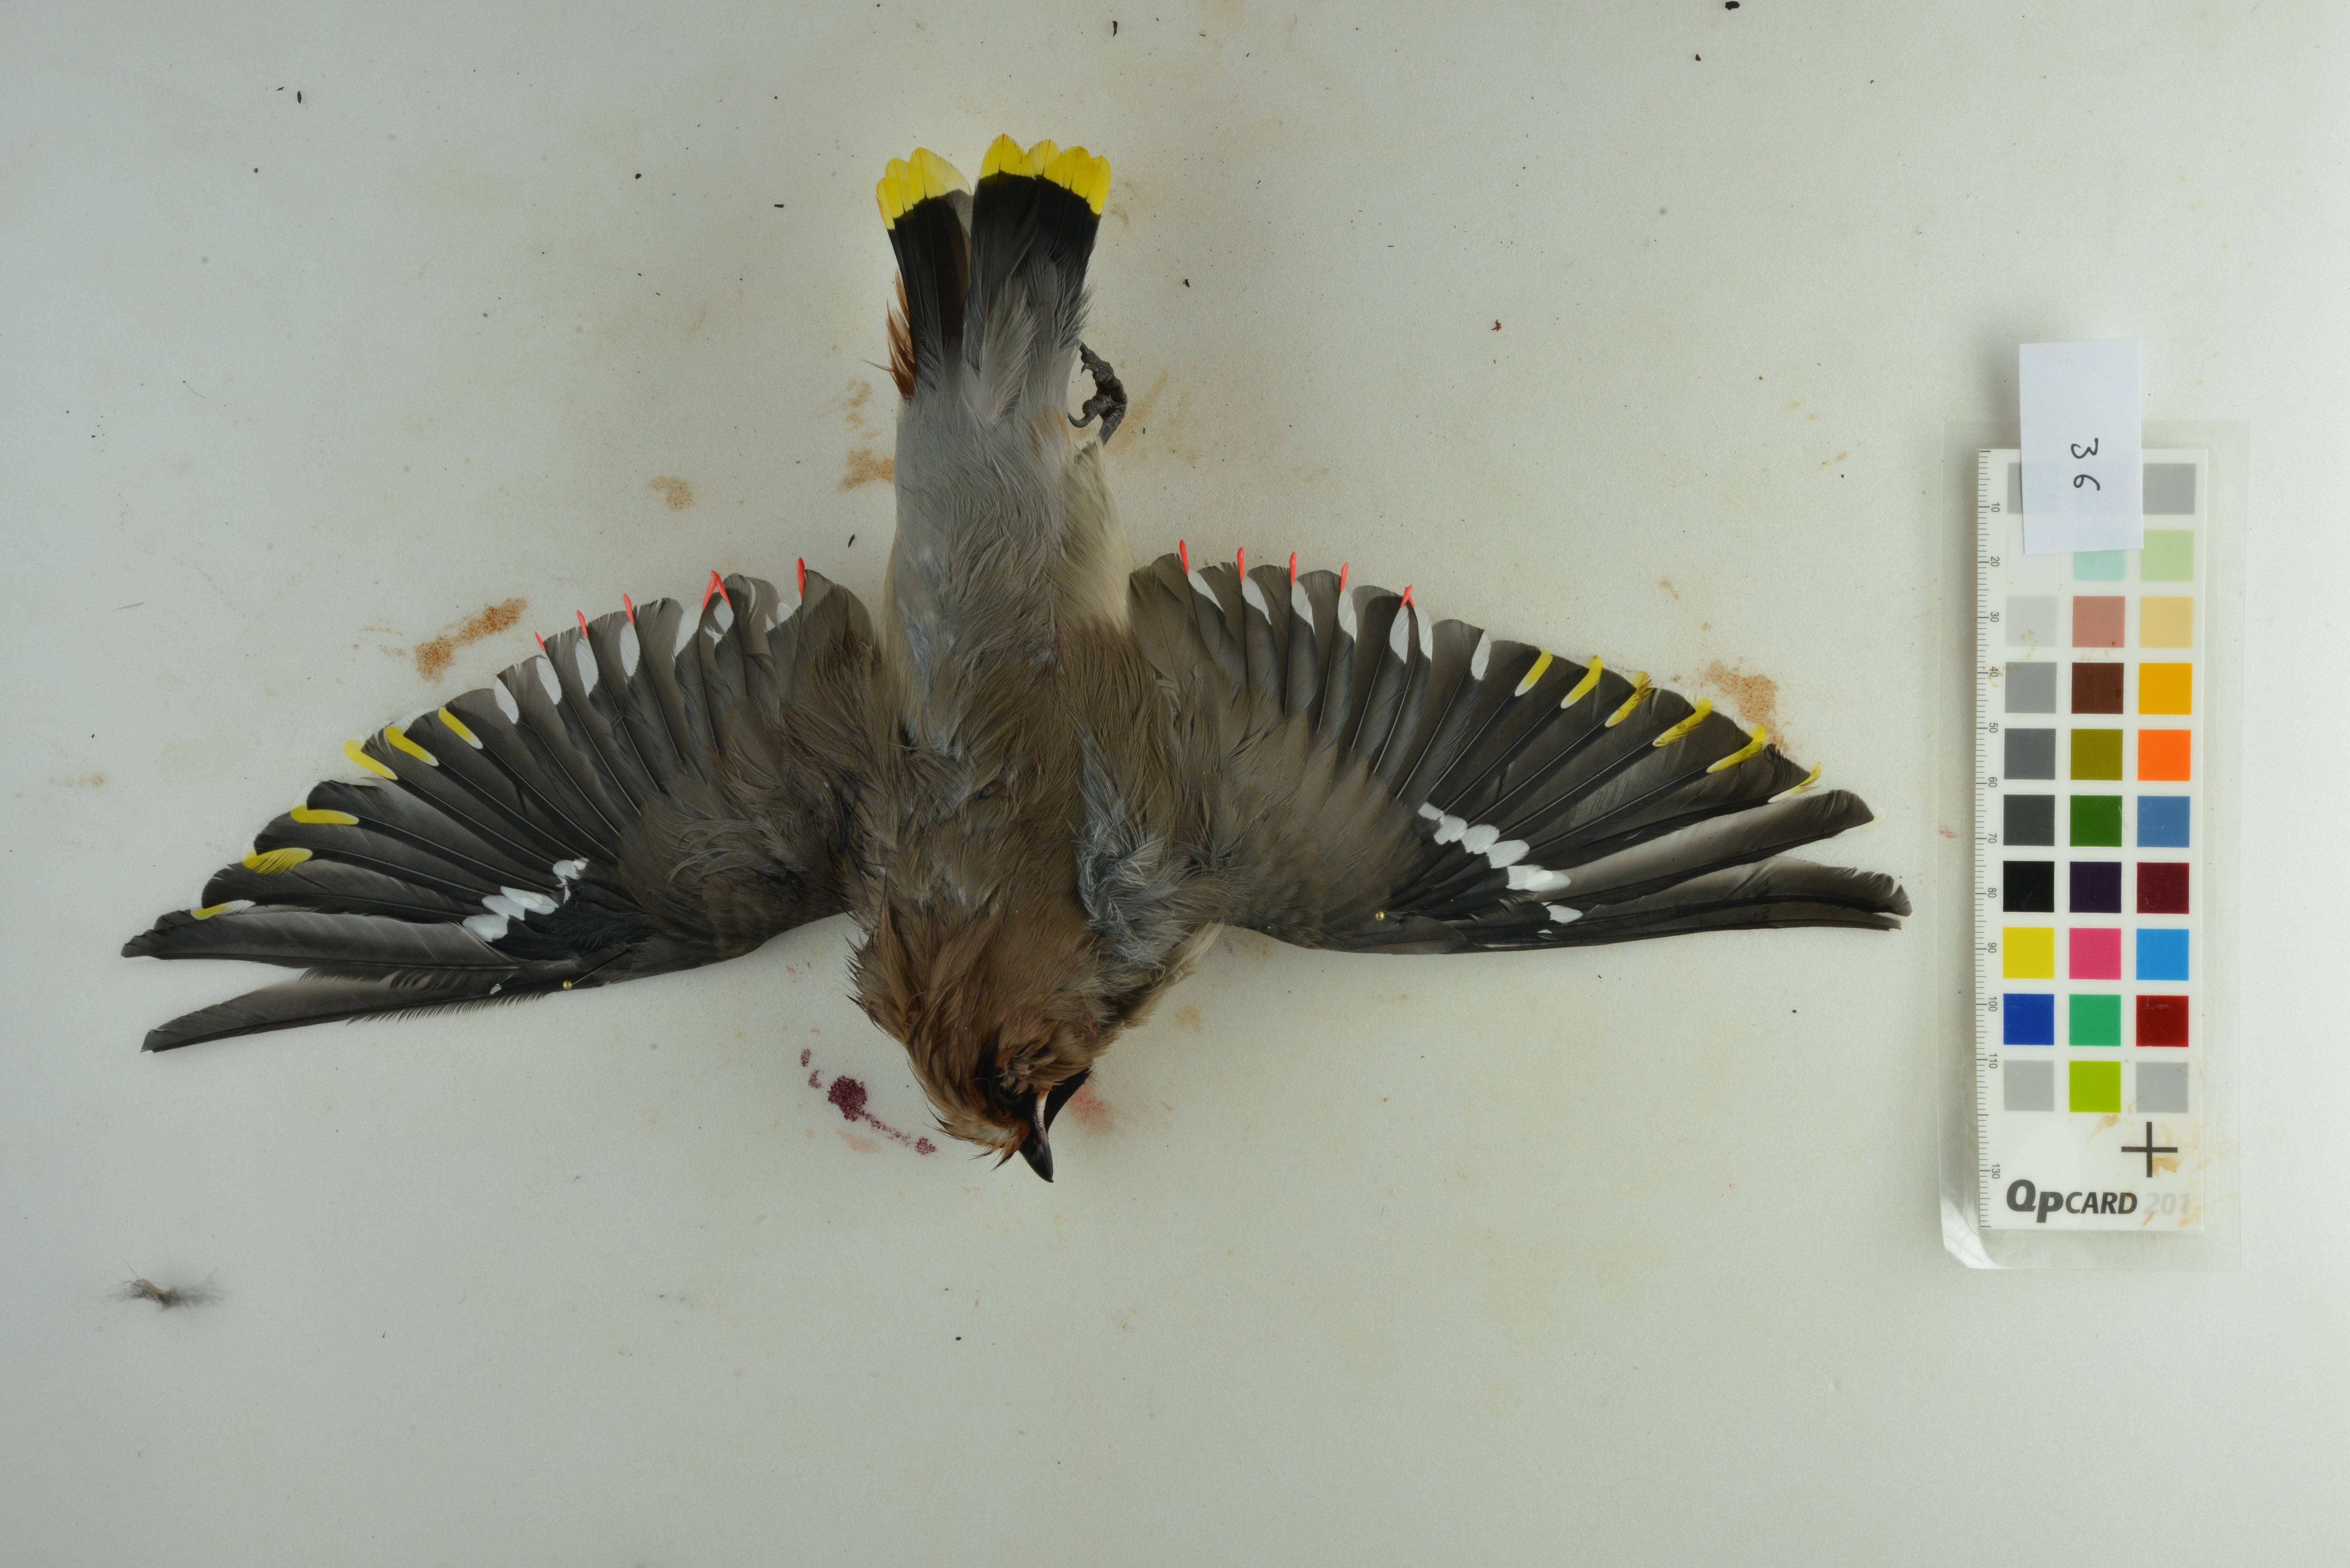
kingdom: Animalia
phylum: Chordata
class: Aves
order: Passeriformes
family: Bombycillidae
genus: Bombycilla
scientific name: Bombycilla garrulus
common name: Bohemian waxwing
